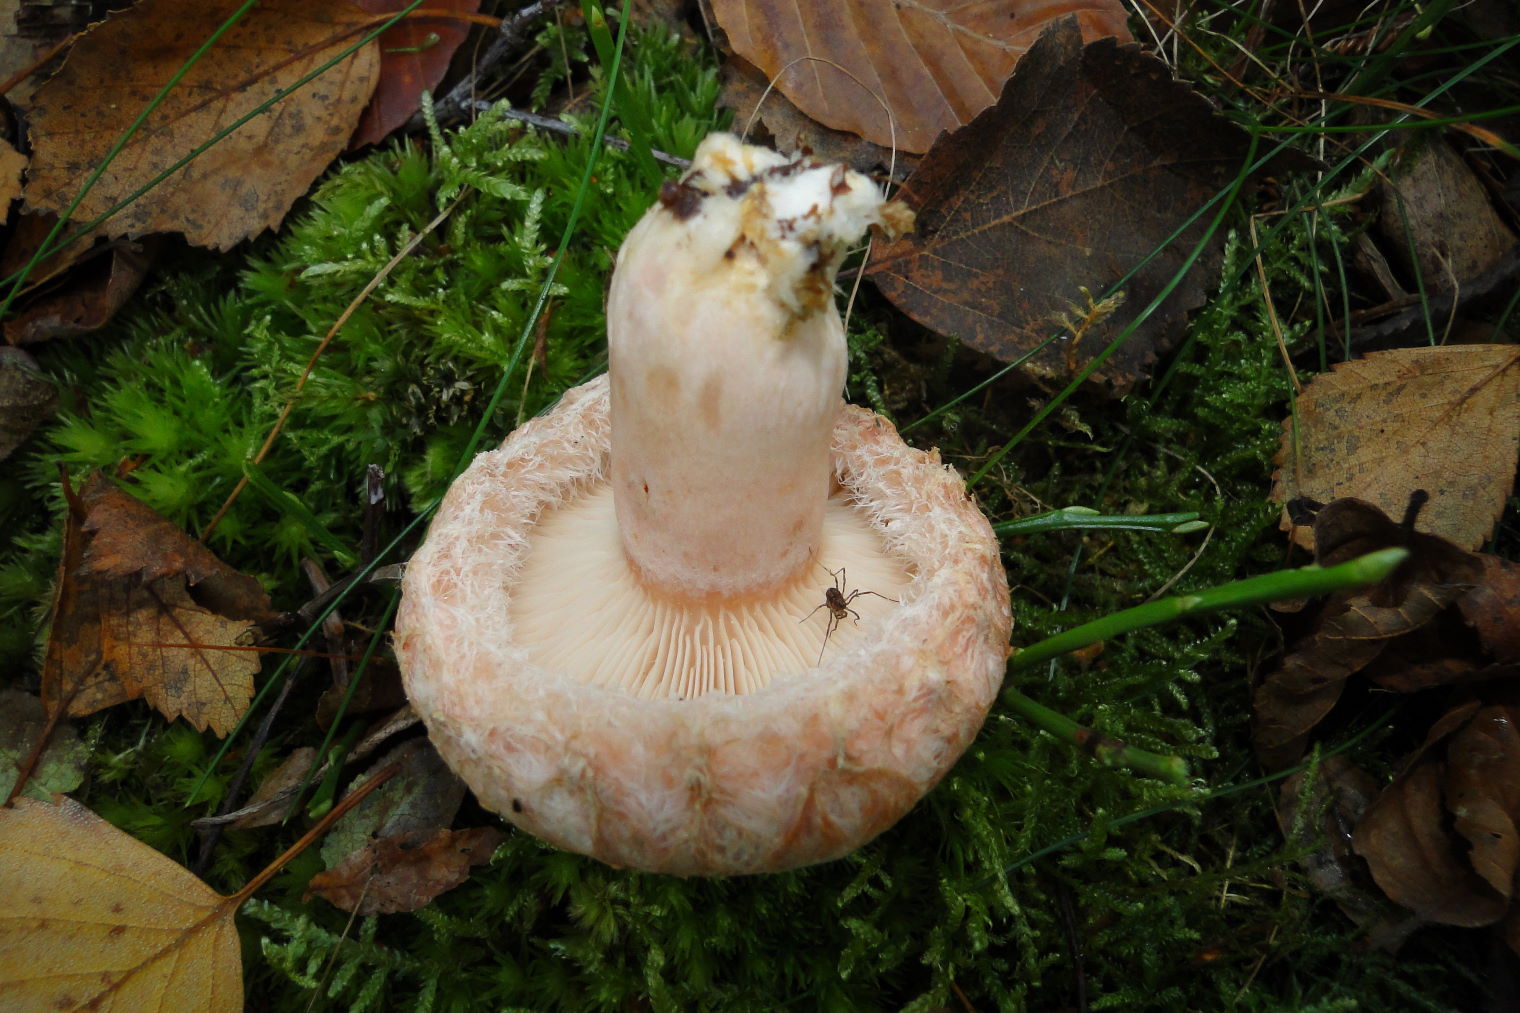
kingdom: Fungi
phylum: Basidiomycota
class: Agaricomycetes
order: Russulales
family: Russulaceae
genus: Lactarius
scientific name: Lactarius torminosus
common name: skægget mælkehat
